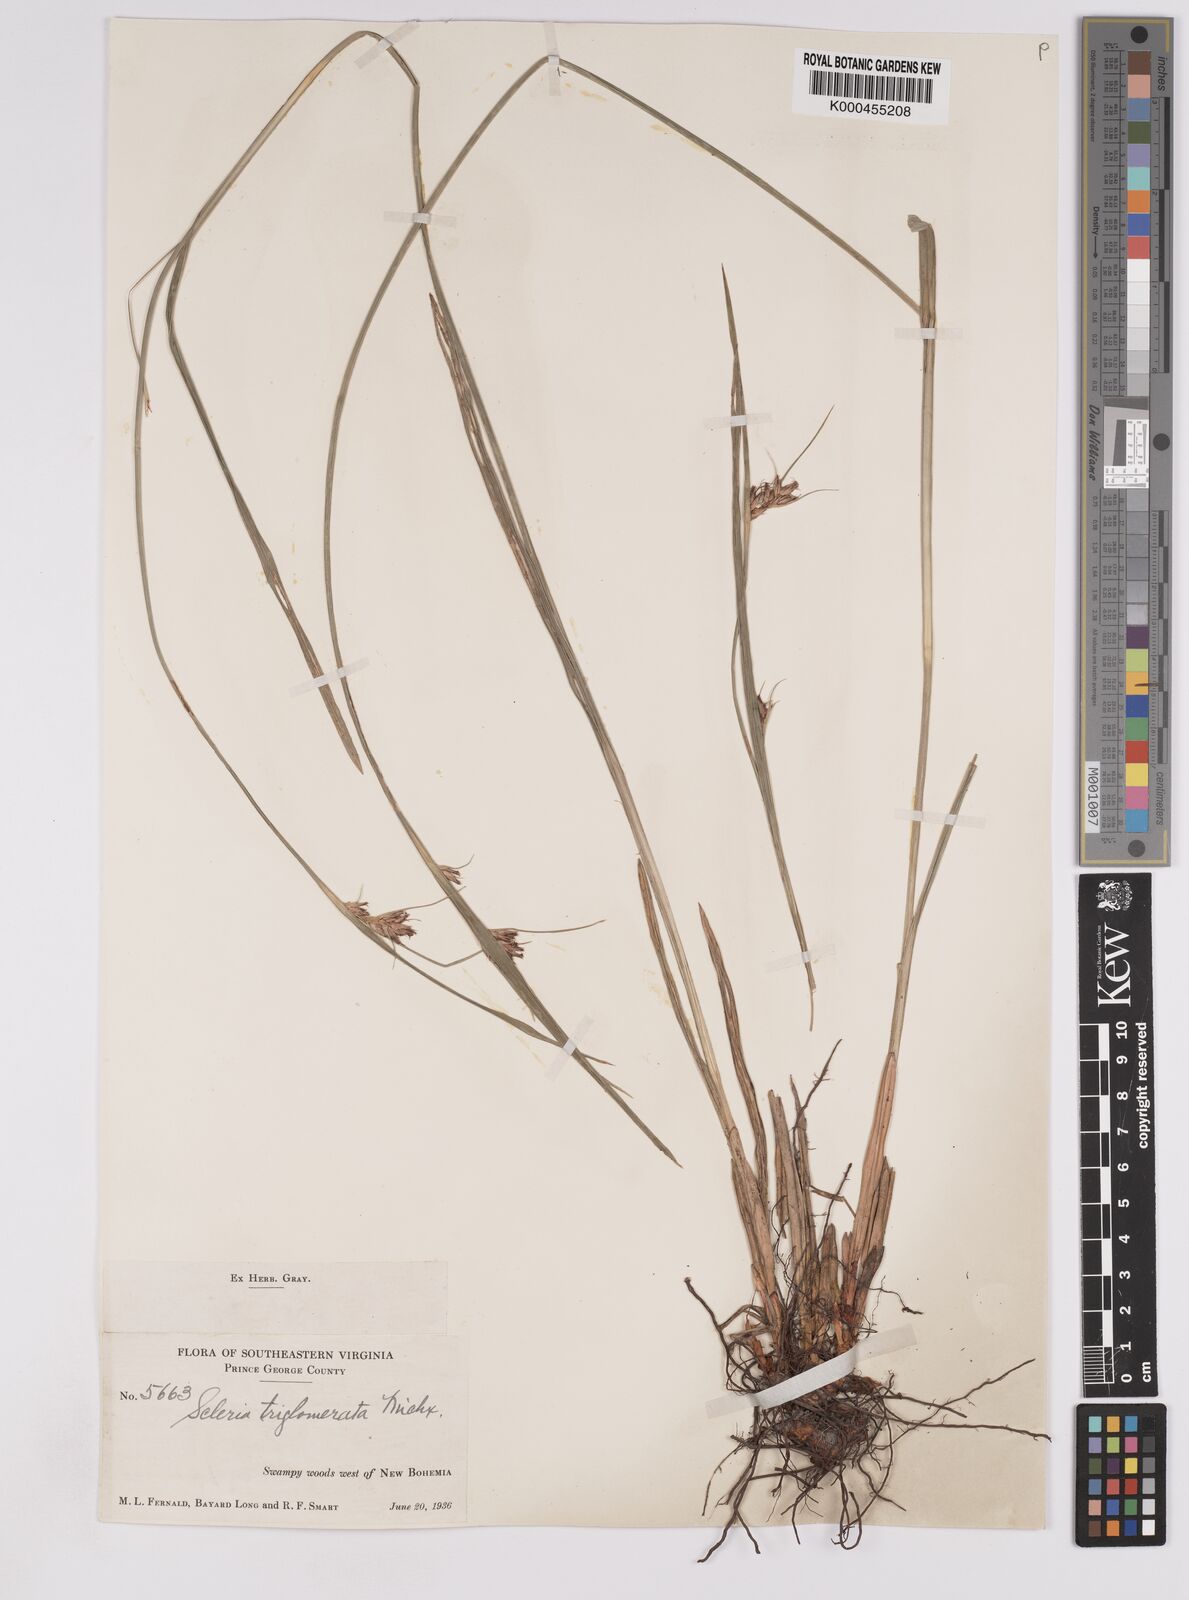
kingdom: Plantae
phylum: Tracheophyta
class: Liliopsida
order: Poales
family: Cyperaceae
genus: Scleria
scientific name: Scleria
